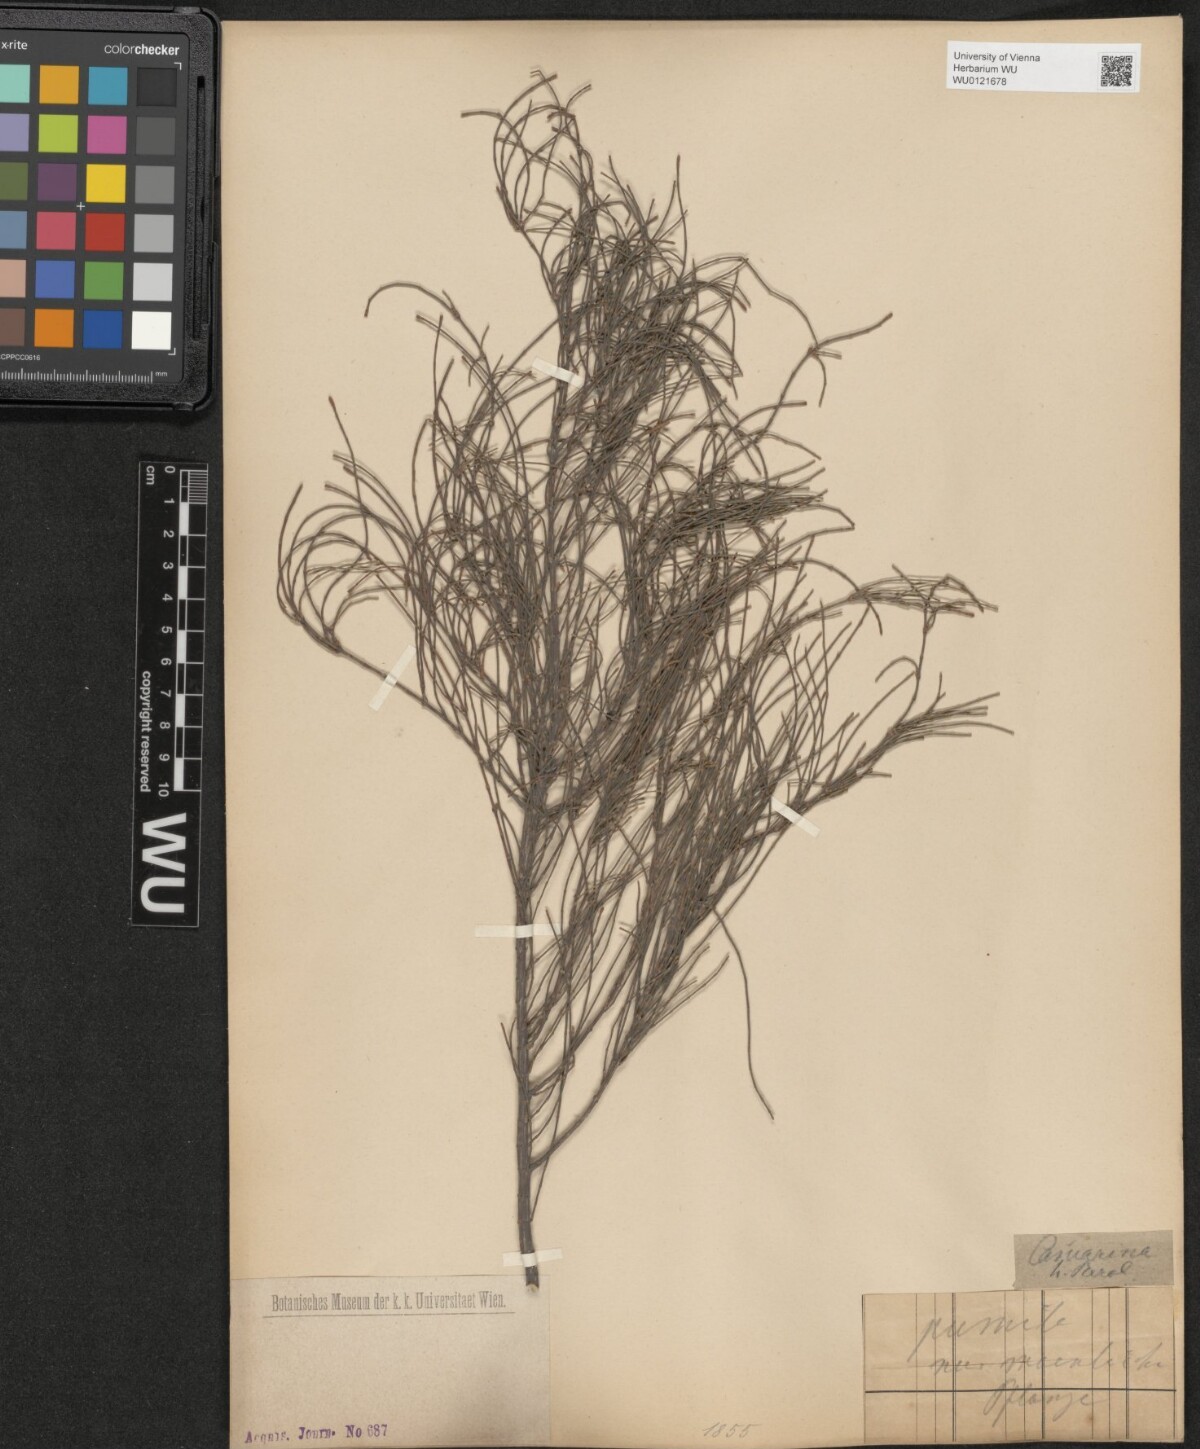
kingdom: Plantae
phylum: Tracheophyta
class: Magnoliopsida
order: Fagales
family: Casuarinaceae
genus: Allocasuarina
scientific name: Allocasuarina paludosa
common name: Scrub she-oak
